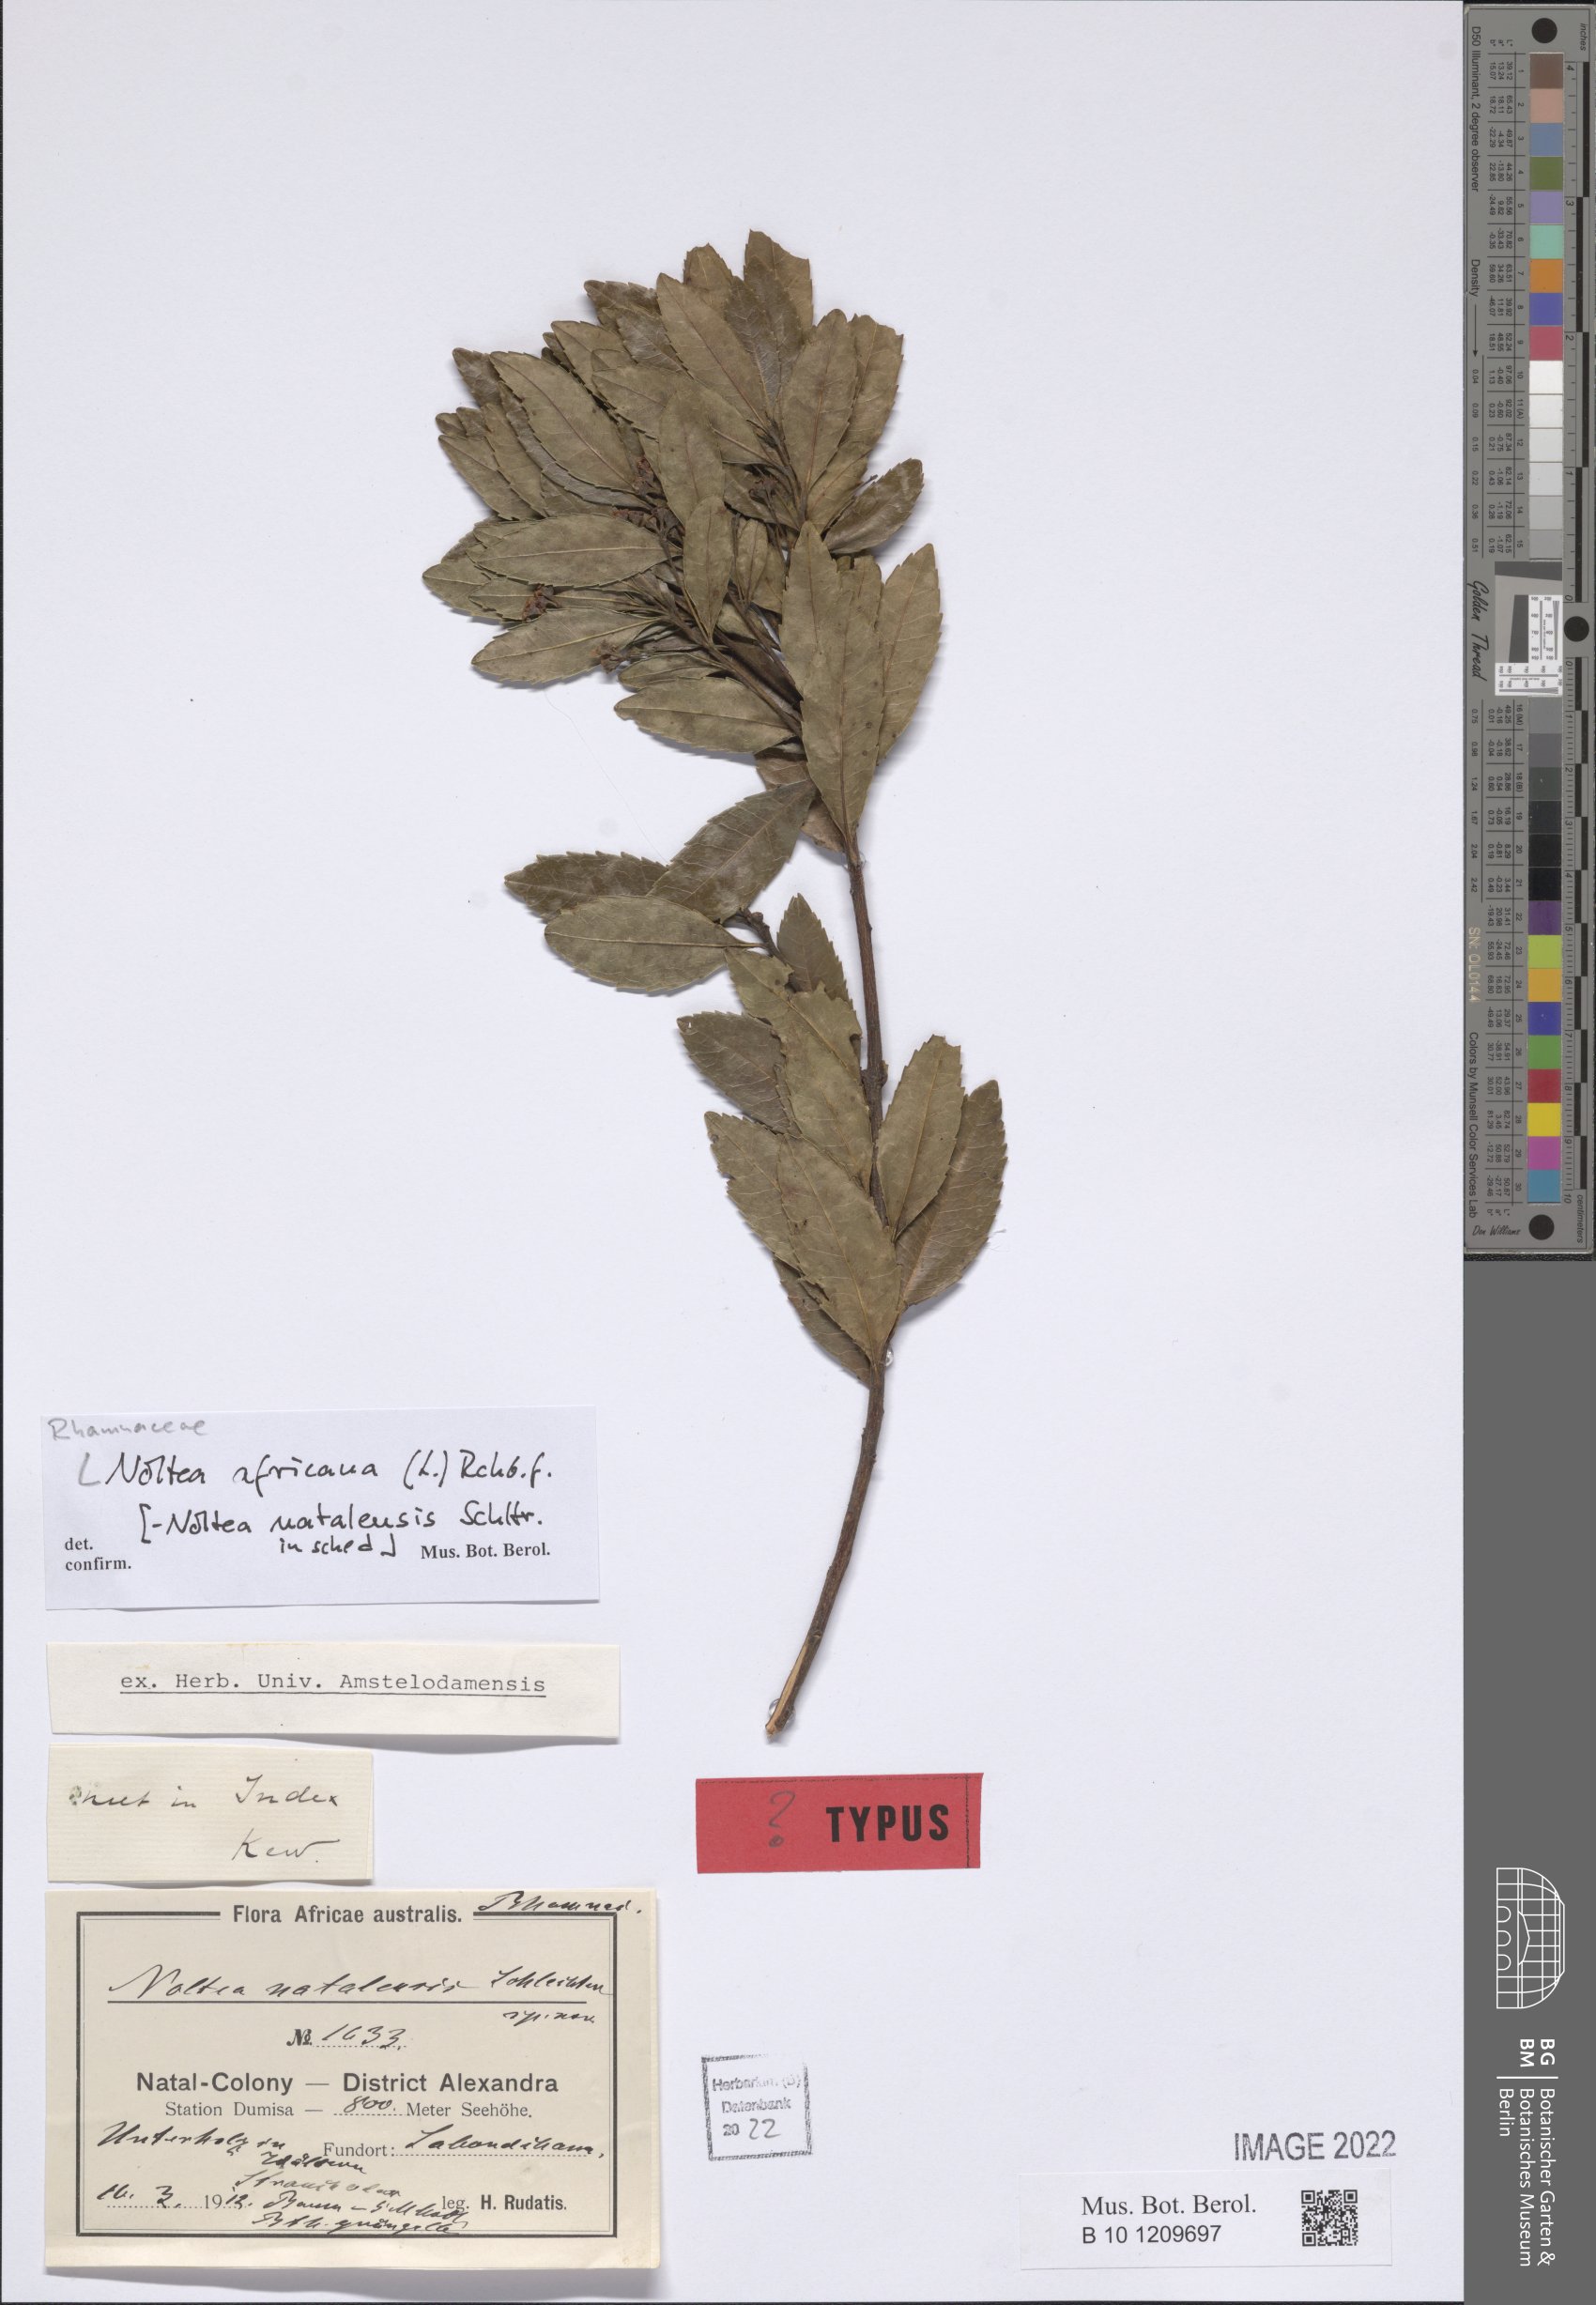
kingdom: Plantae
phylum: Tracheophyta
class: Magnoliopsida
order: Rosales
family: Rhamnaceae
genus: Noltea
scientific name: Noltea africana
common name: Soapbush
